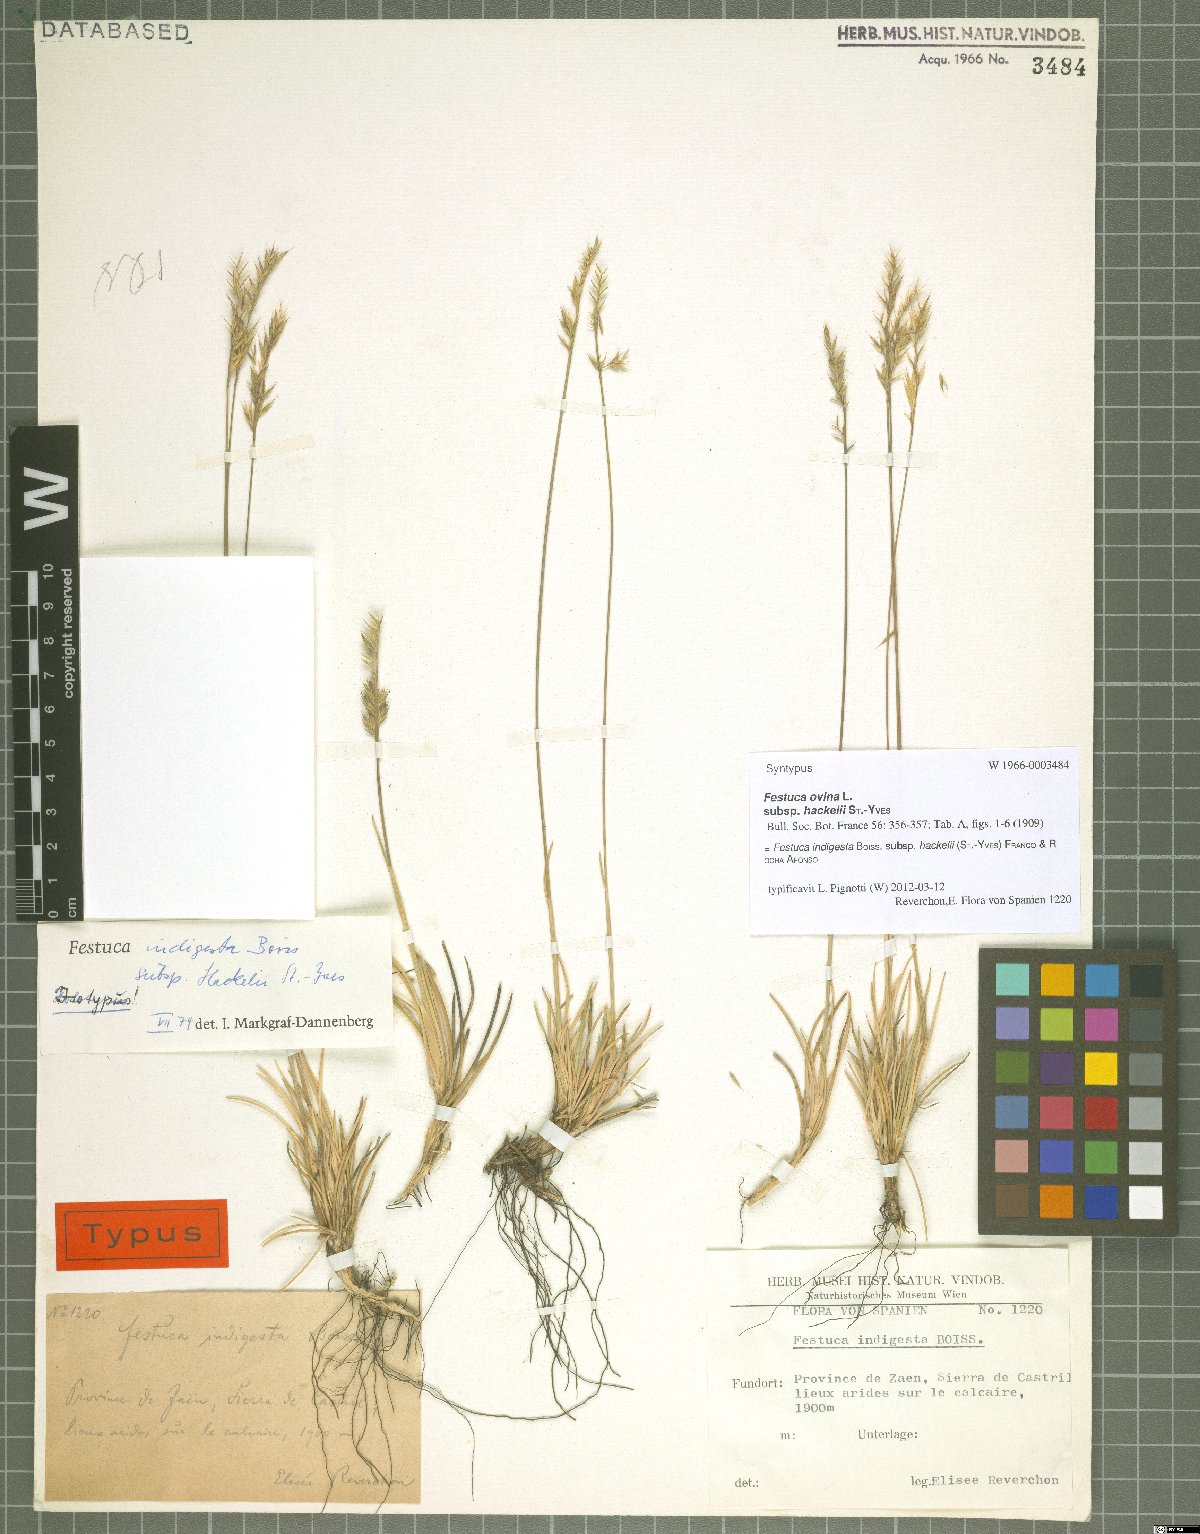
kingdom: Plantae
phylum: Tracheophyta
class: Liliopsida
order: Poales
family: Poaceae
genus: Festuca
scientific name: Festuca indigesta
